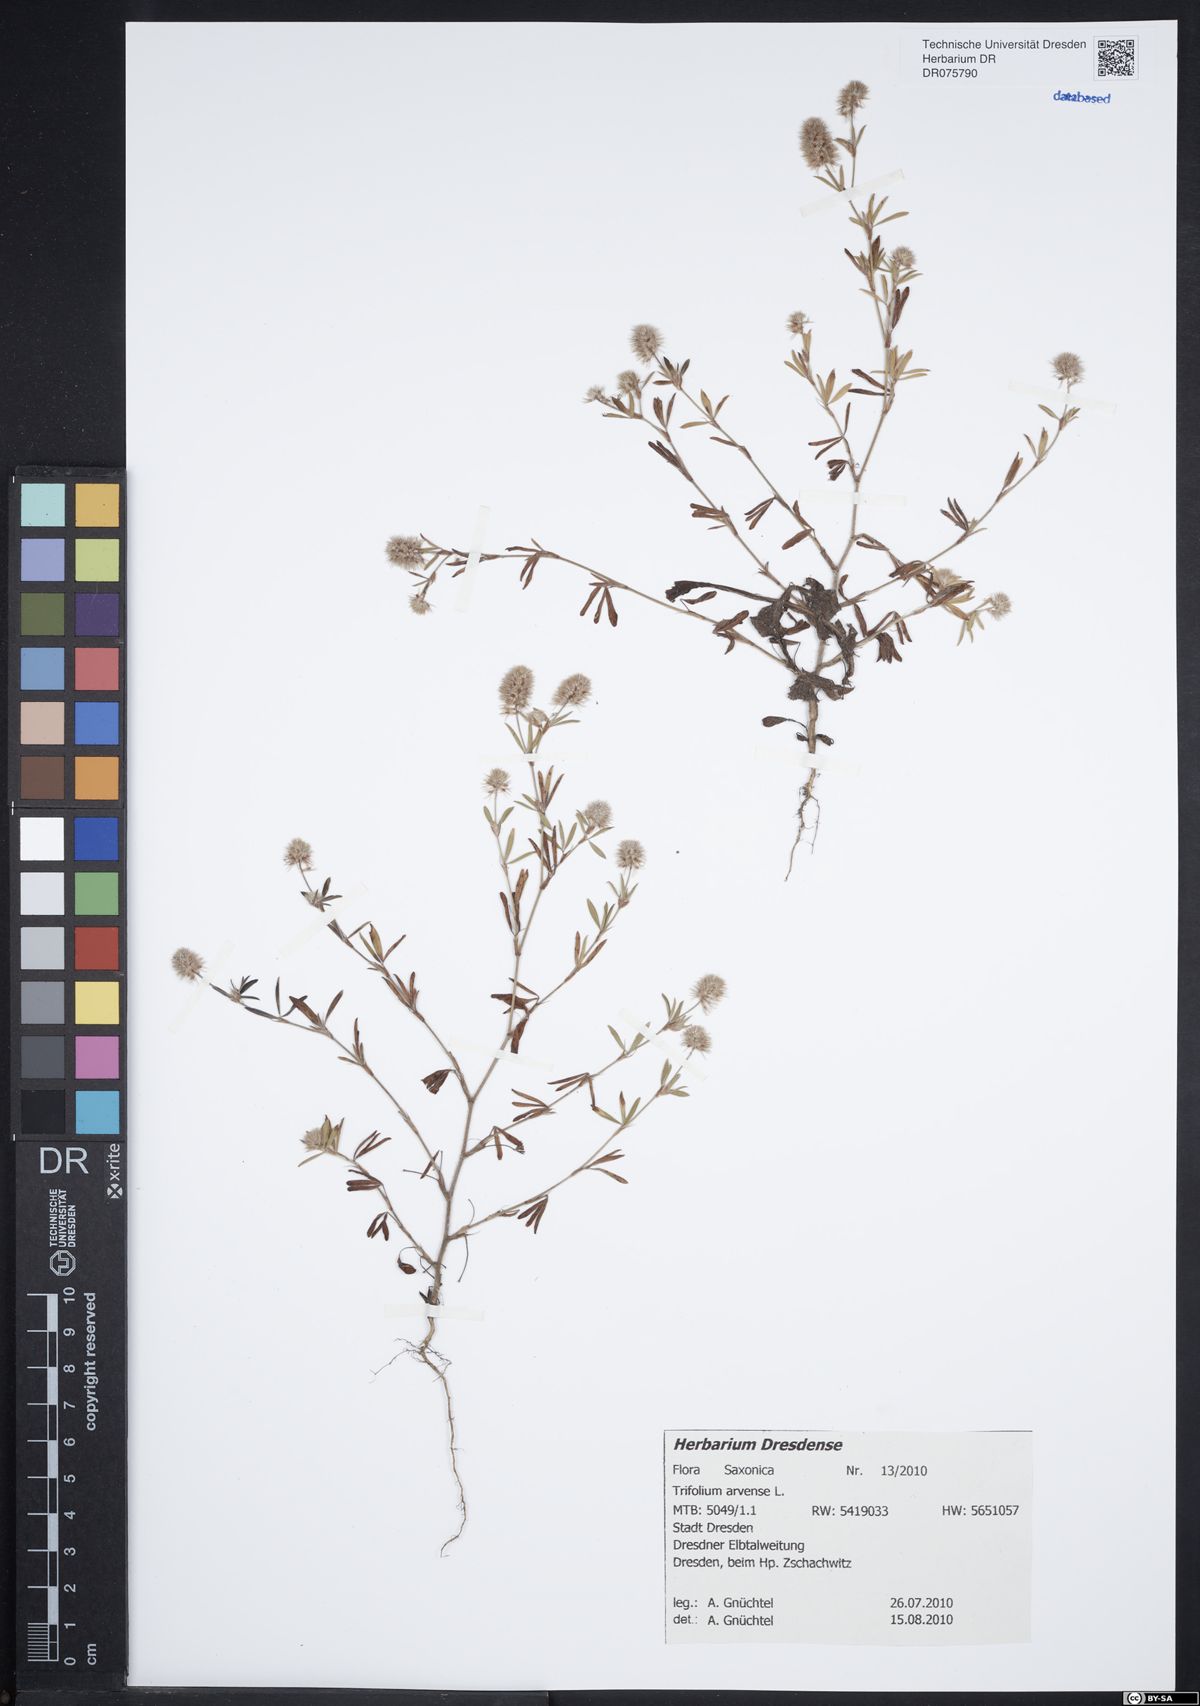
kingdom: Plantae
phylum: Tracheophyta
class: Magnoliopsida
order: Fabales
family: Fabaceae
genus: Trifolium
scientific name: Trifolium arvense
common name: Hare's-foot clover
